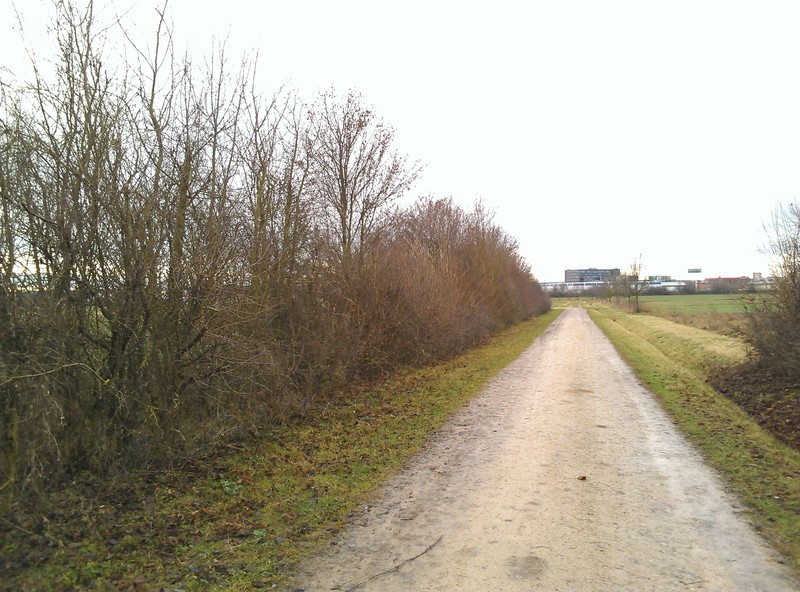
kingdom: Fungi
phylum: Ascomycota
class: Lecanoromycetes
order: Caliciales
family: Physciaceae
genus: Physcia
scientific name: Physcia stellaris
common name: Star rosette lichen
